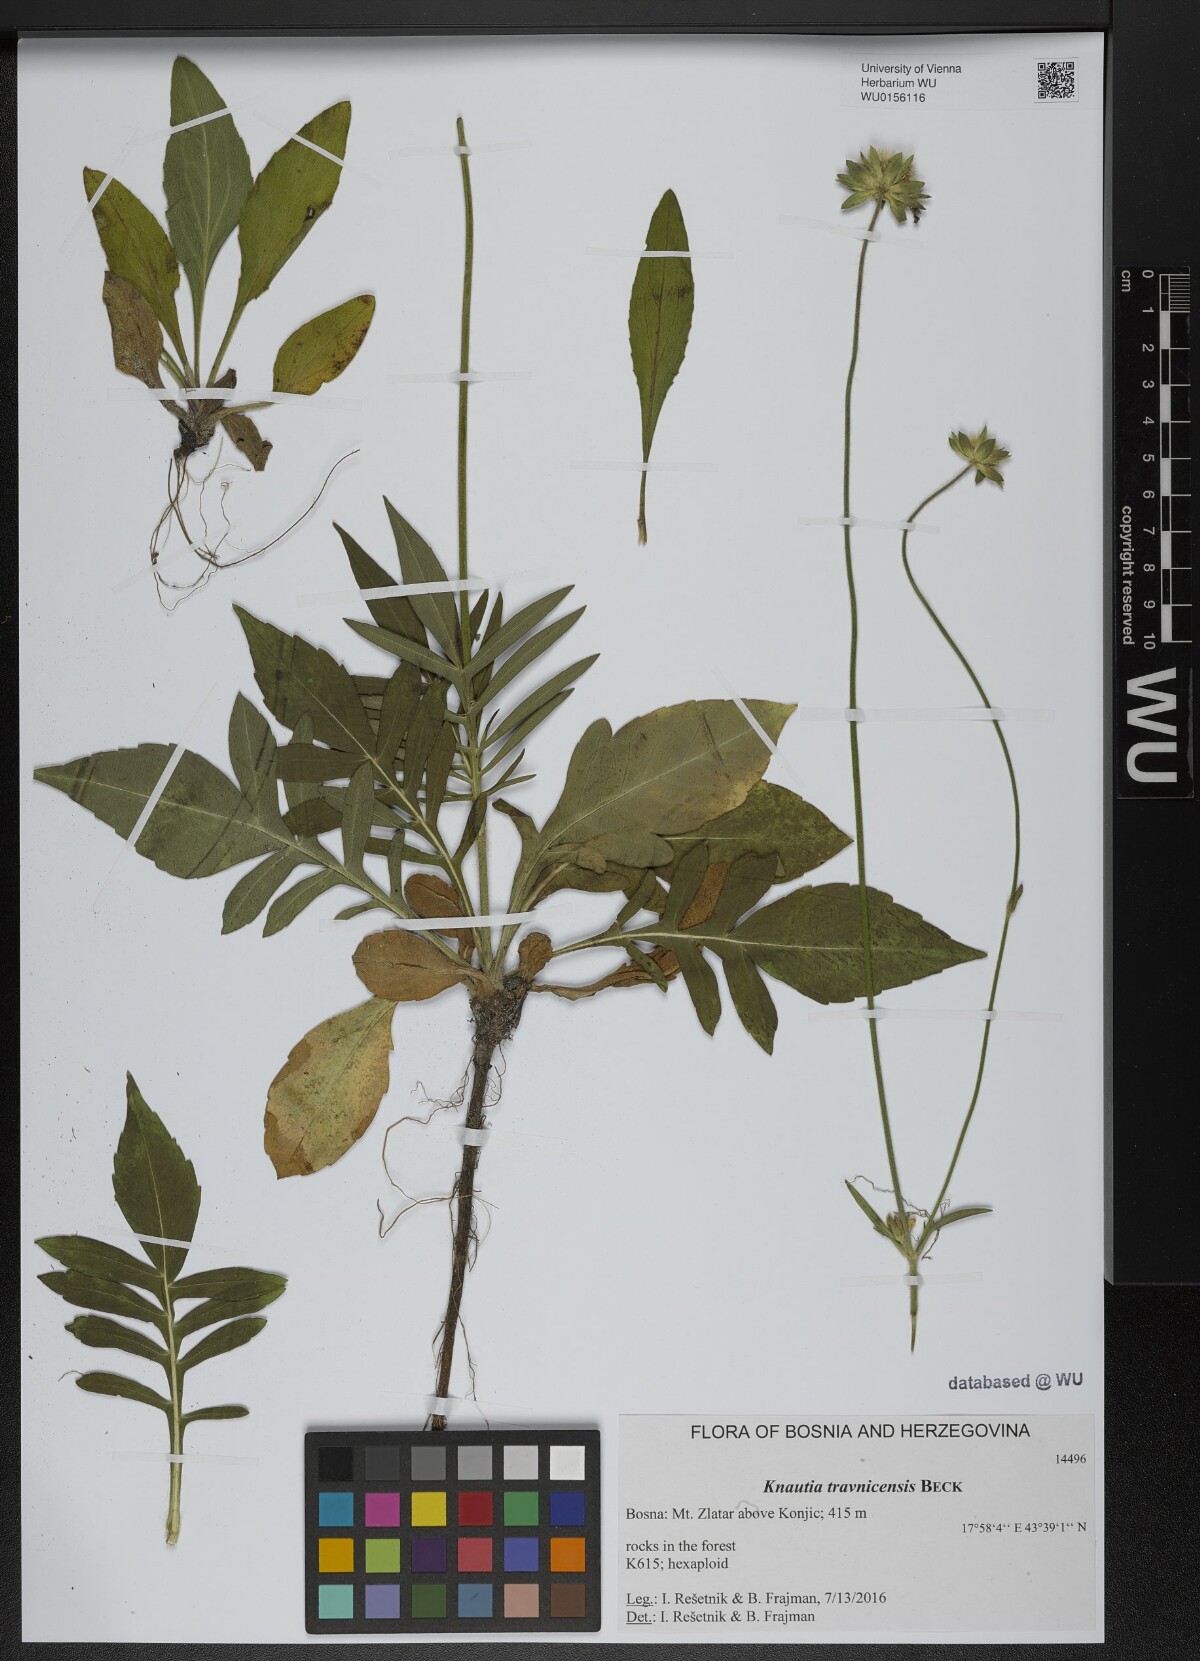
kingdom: Plantae
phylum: Tracheophyta
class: Magnoliopsida
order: Dipsacales
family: Caprifoliaceae
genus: Knautia
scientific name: Knautia travnicensis
